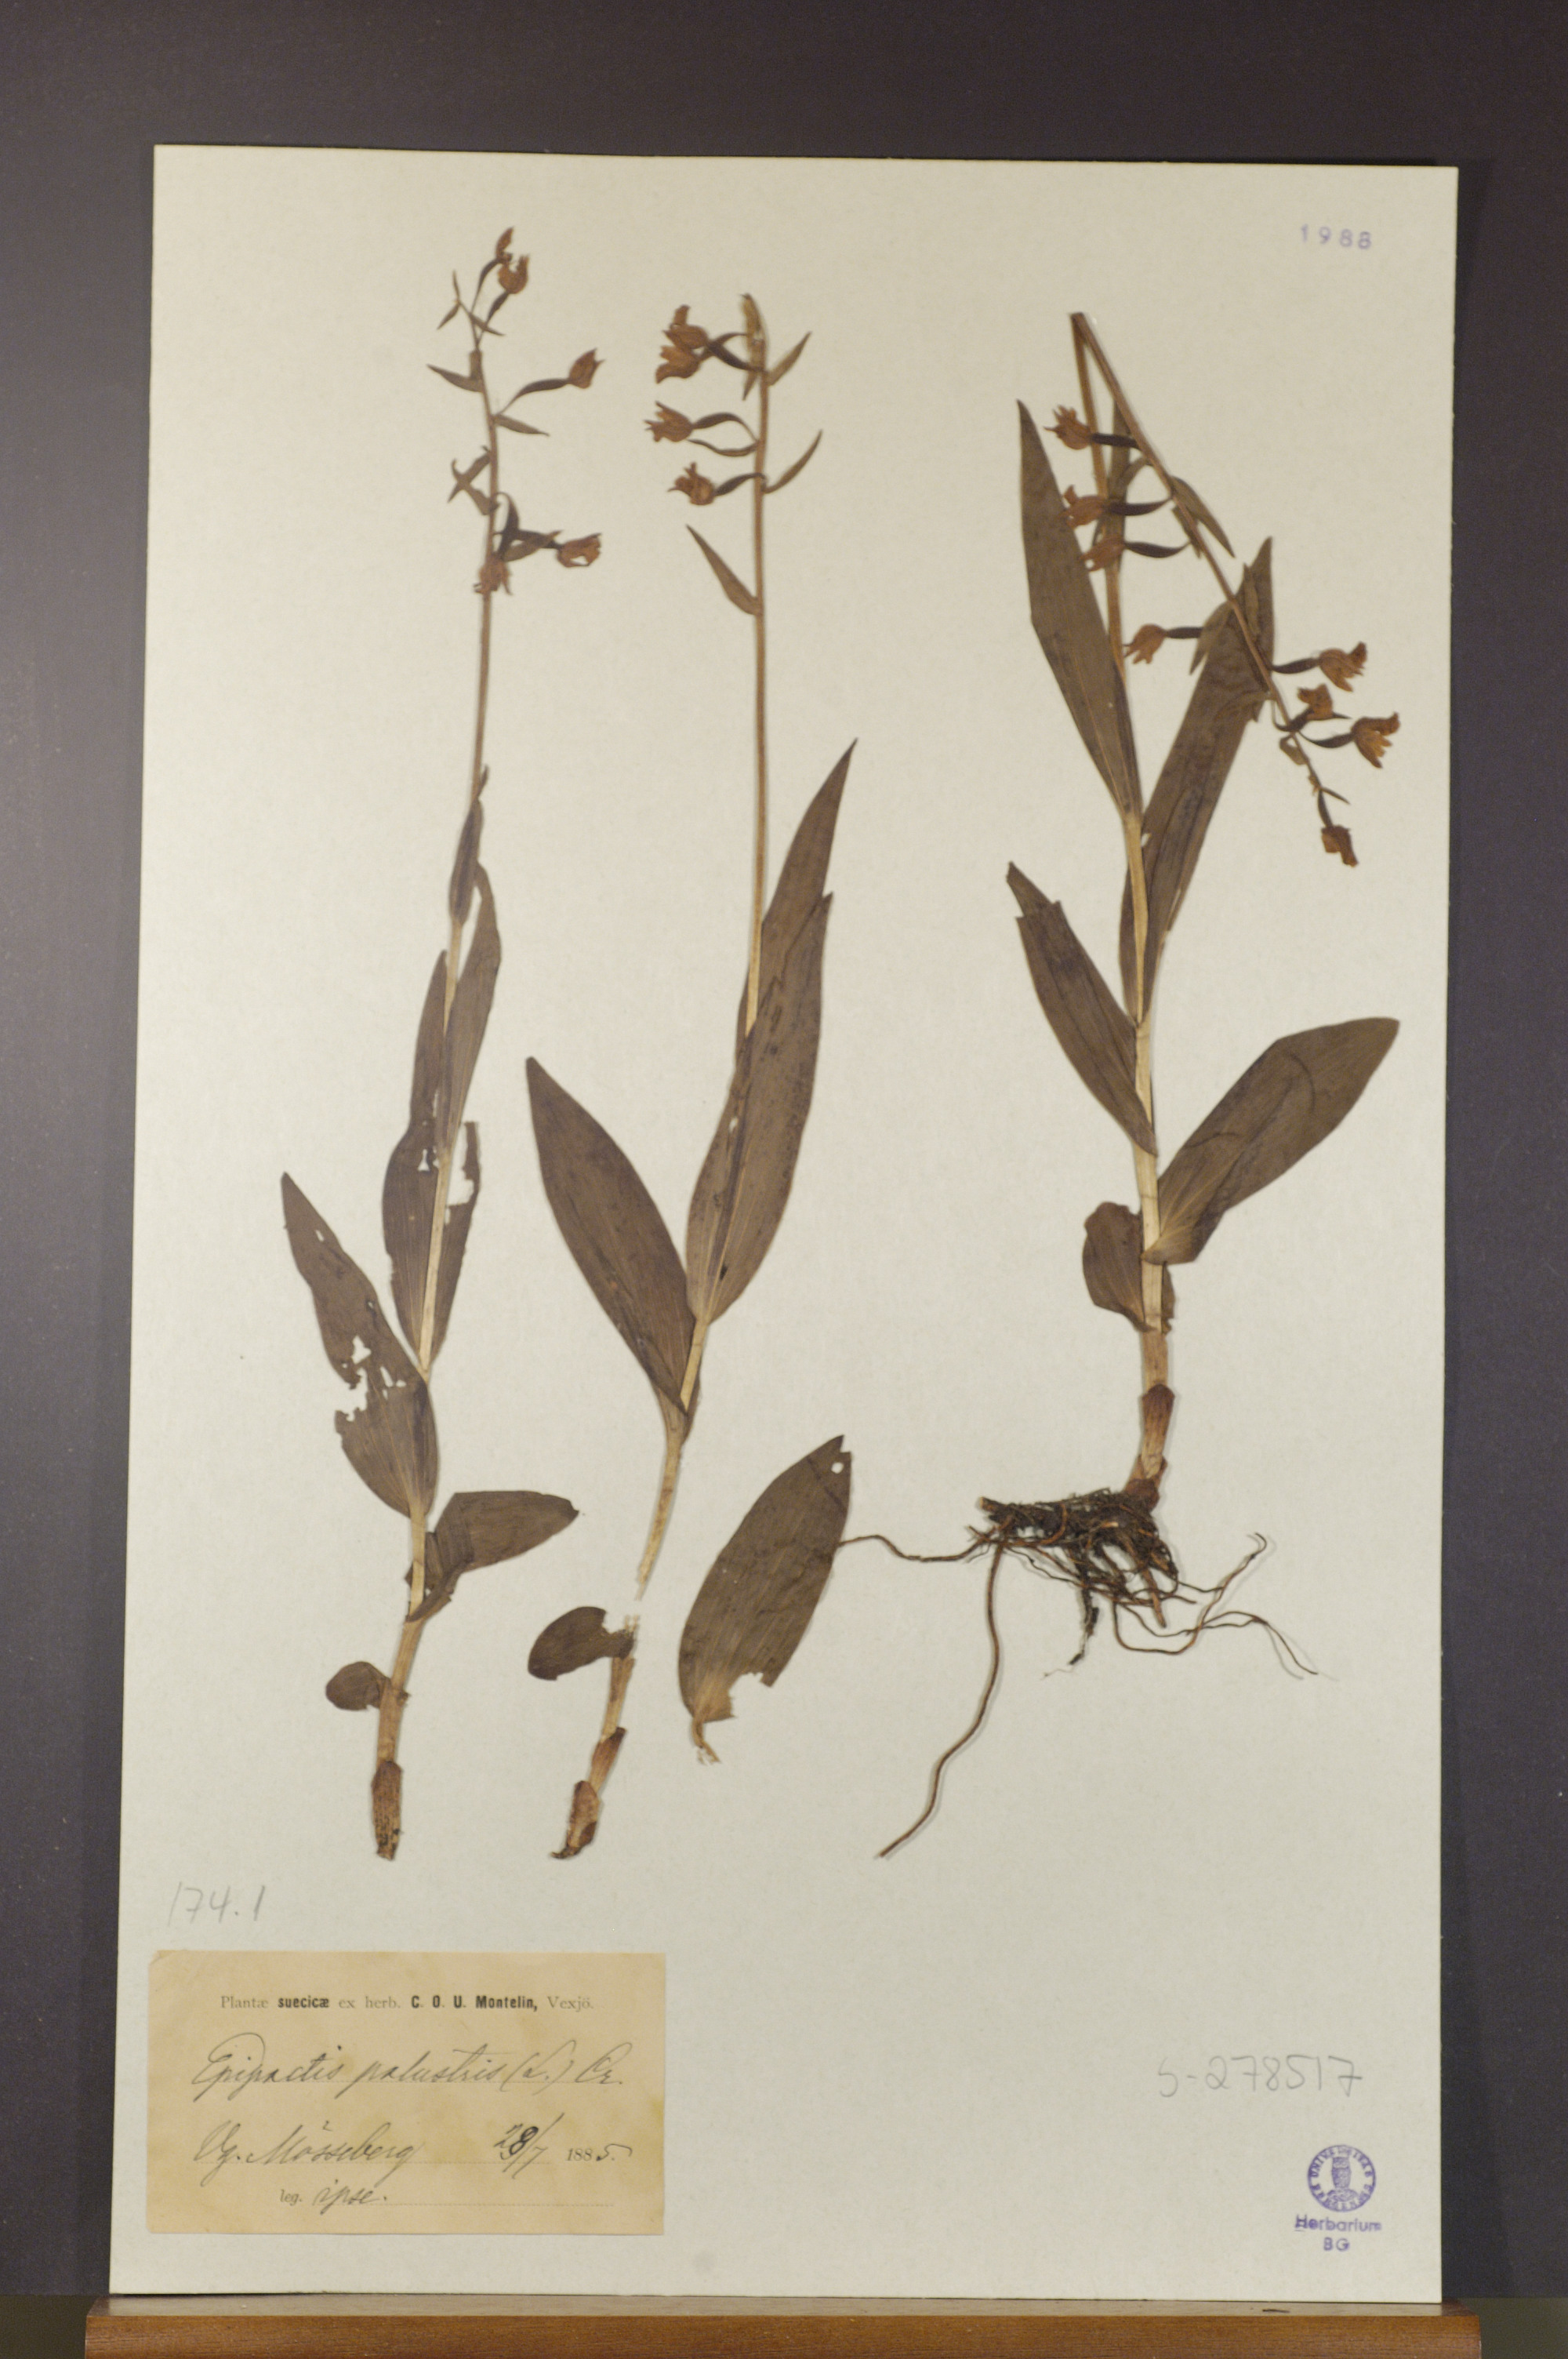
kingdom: Plantae
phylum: Tracheophyta
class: Liliopsida
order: Asparagales
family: Orchidaceae
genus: Epipactis
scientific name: Epipactis palustris
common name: Marsh helleborine
